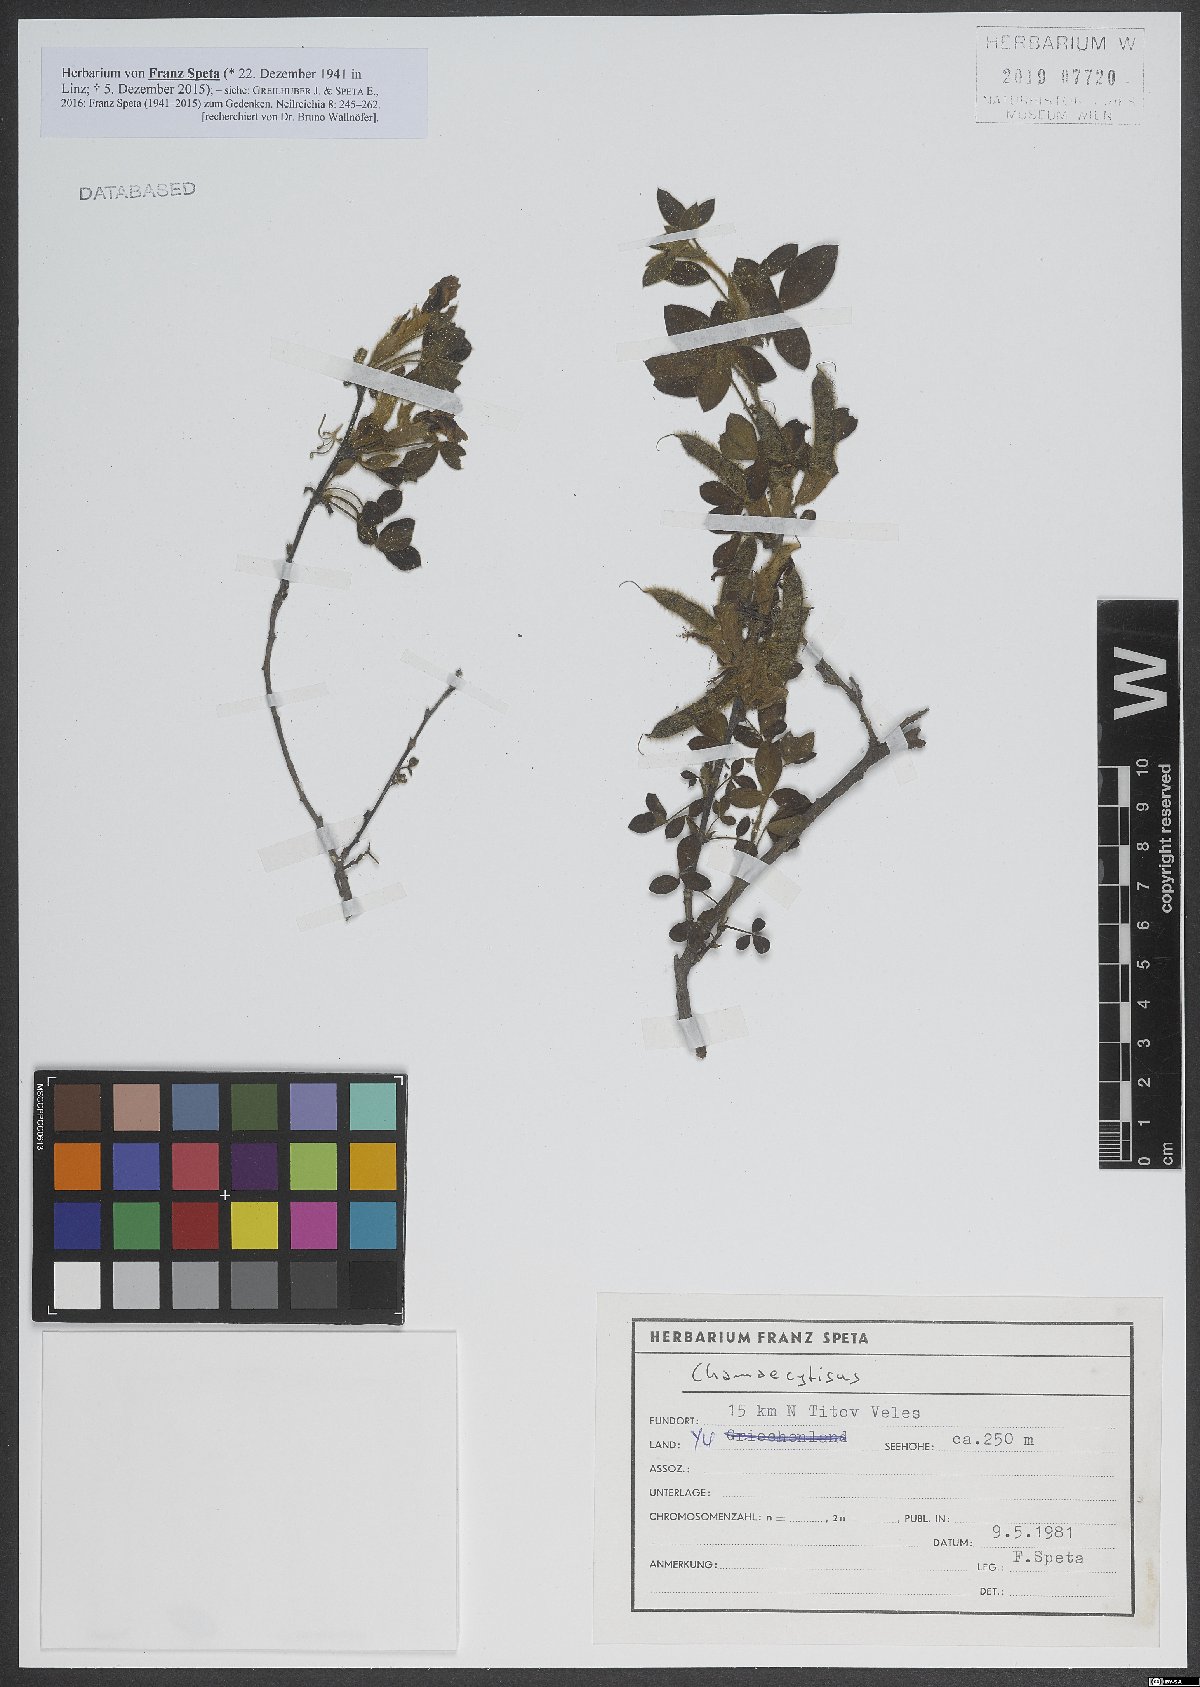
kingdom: Plantae
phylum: Tracheophyta
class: Magnoliopsida
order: Fabales
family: Fabaceae
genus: Chamaecytisus
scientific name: Chamaecytisus
